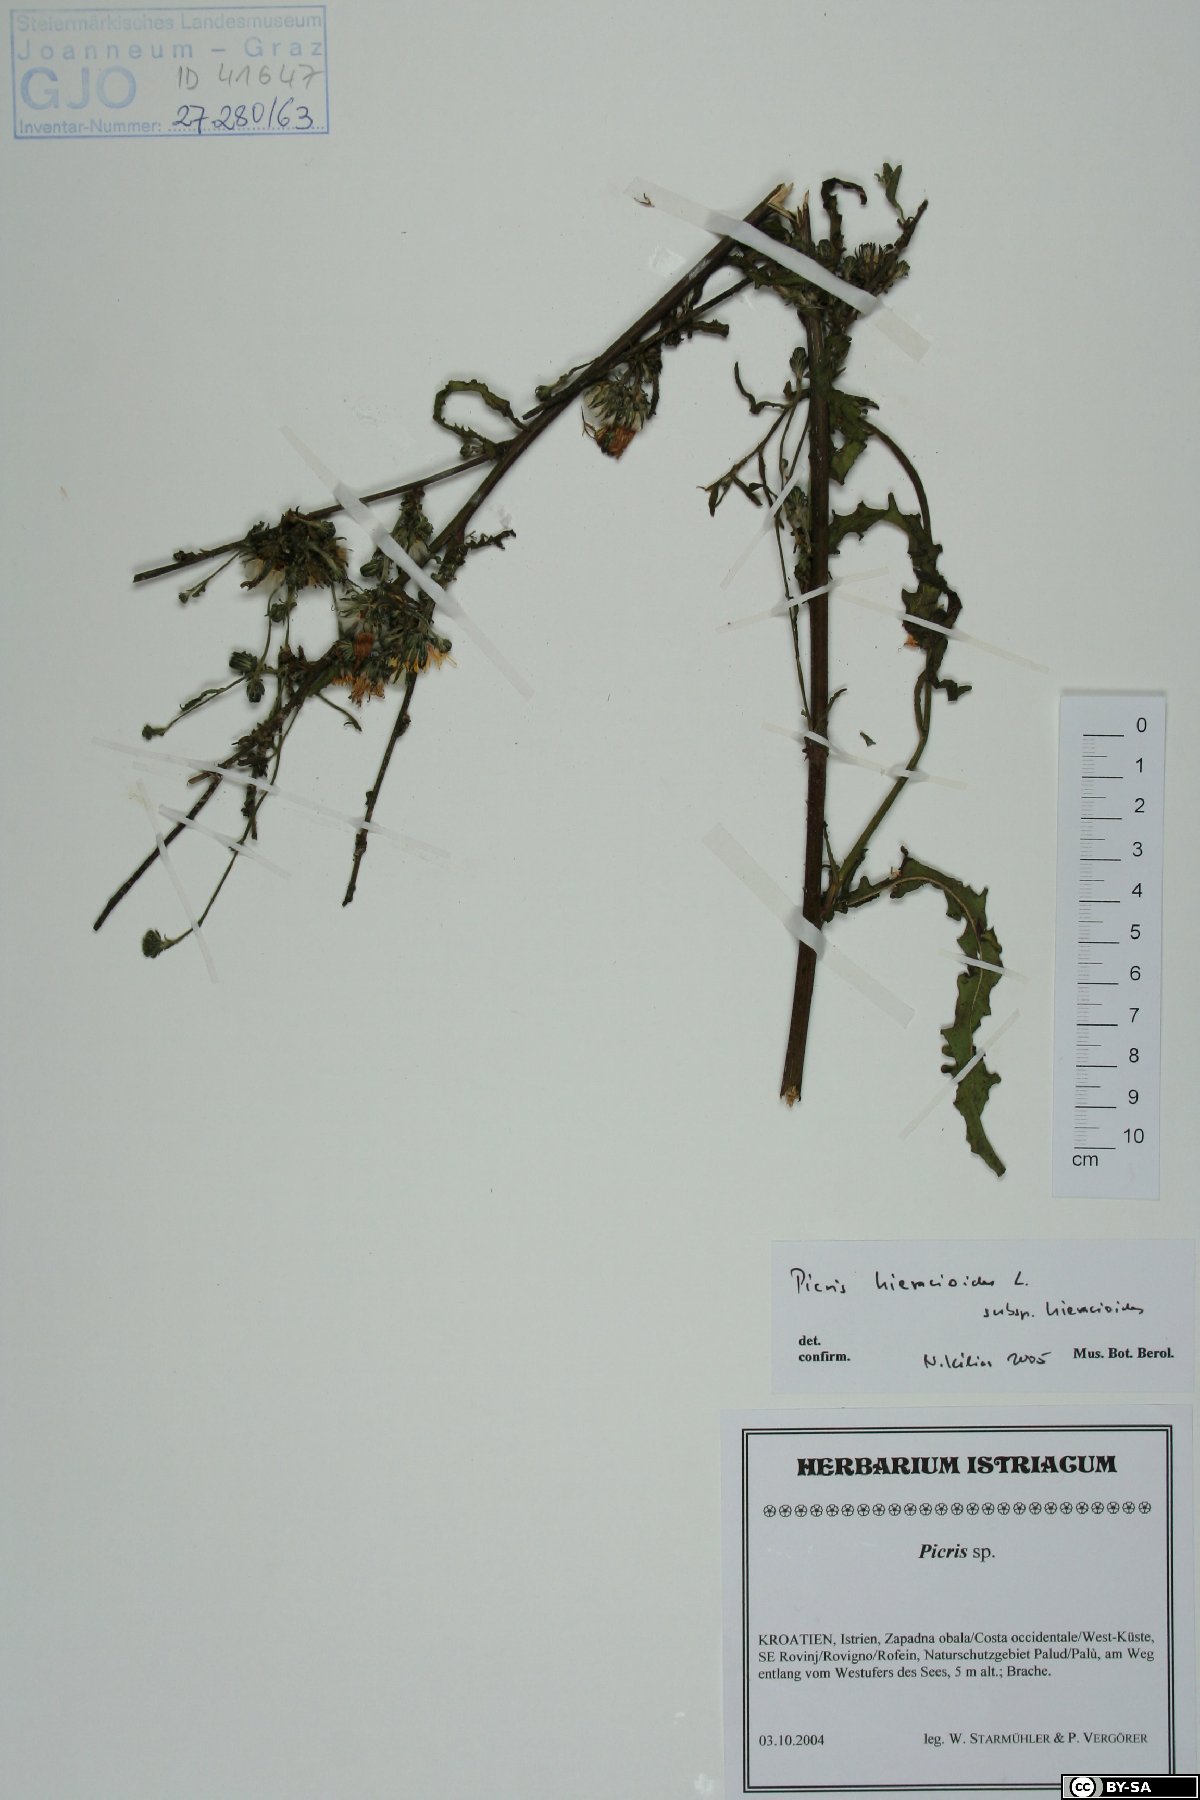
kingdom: Plantae
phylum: Tracheophyta
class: Magnoliopsida
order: Asterales
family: Asteraceae
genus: Picris
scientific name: Picris hieracioides
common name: Hawkweed oxtongue
